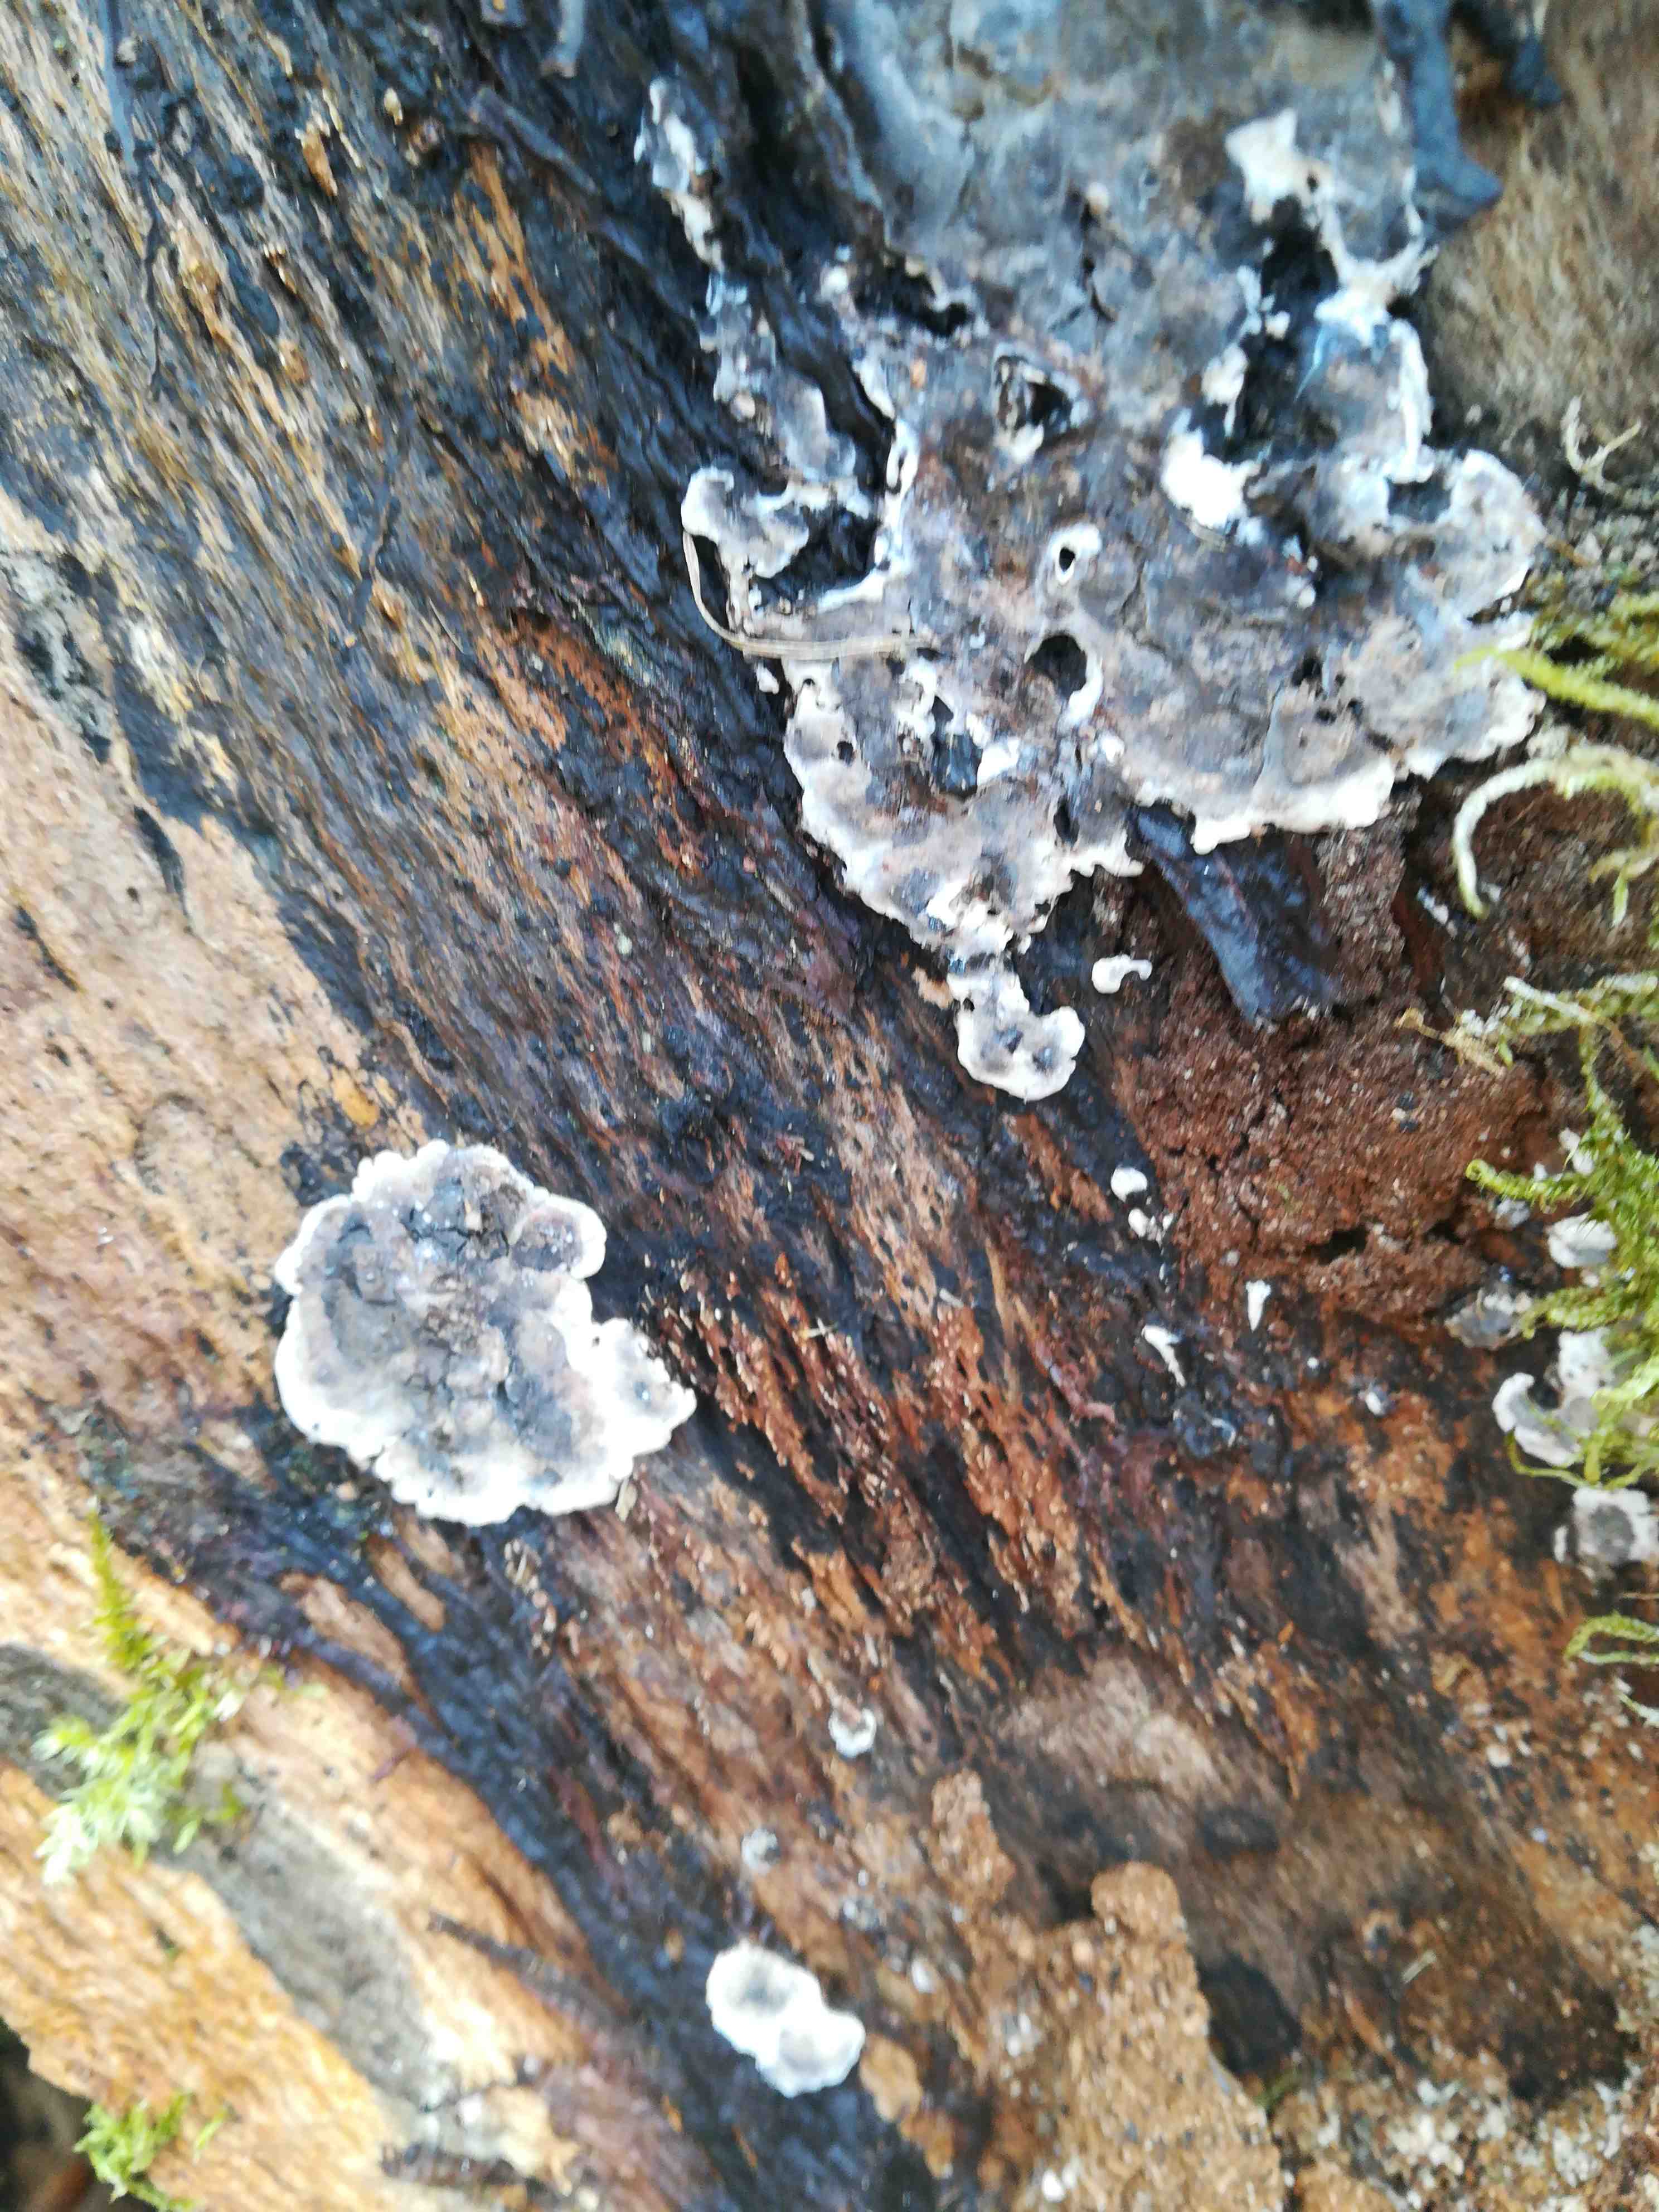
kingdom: Fungi
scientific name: Fungi
